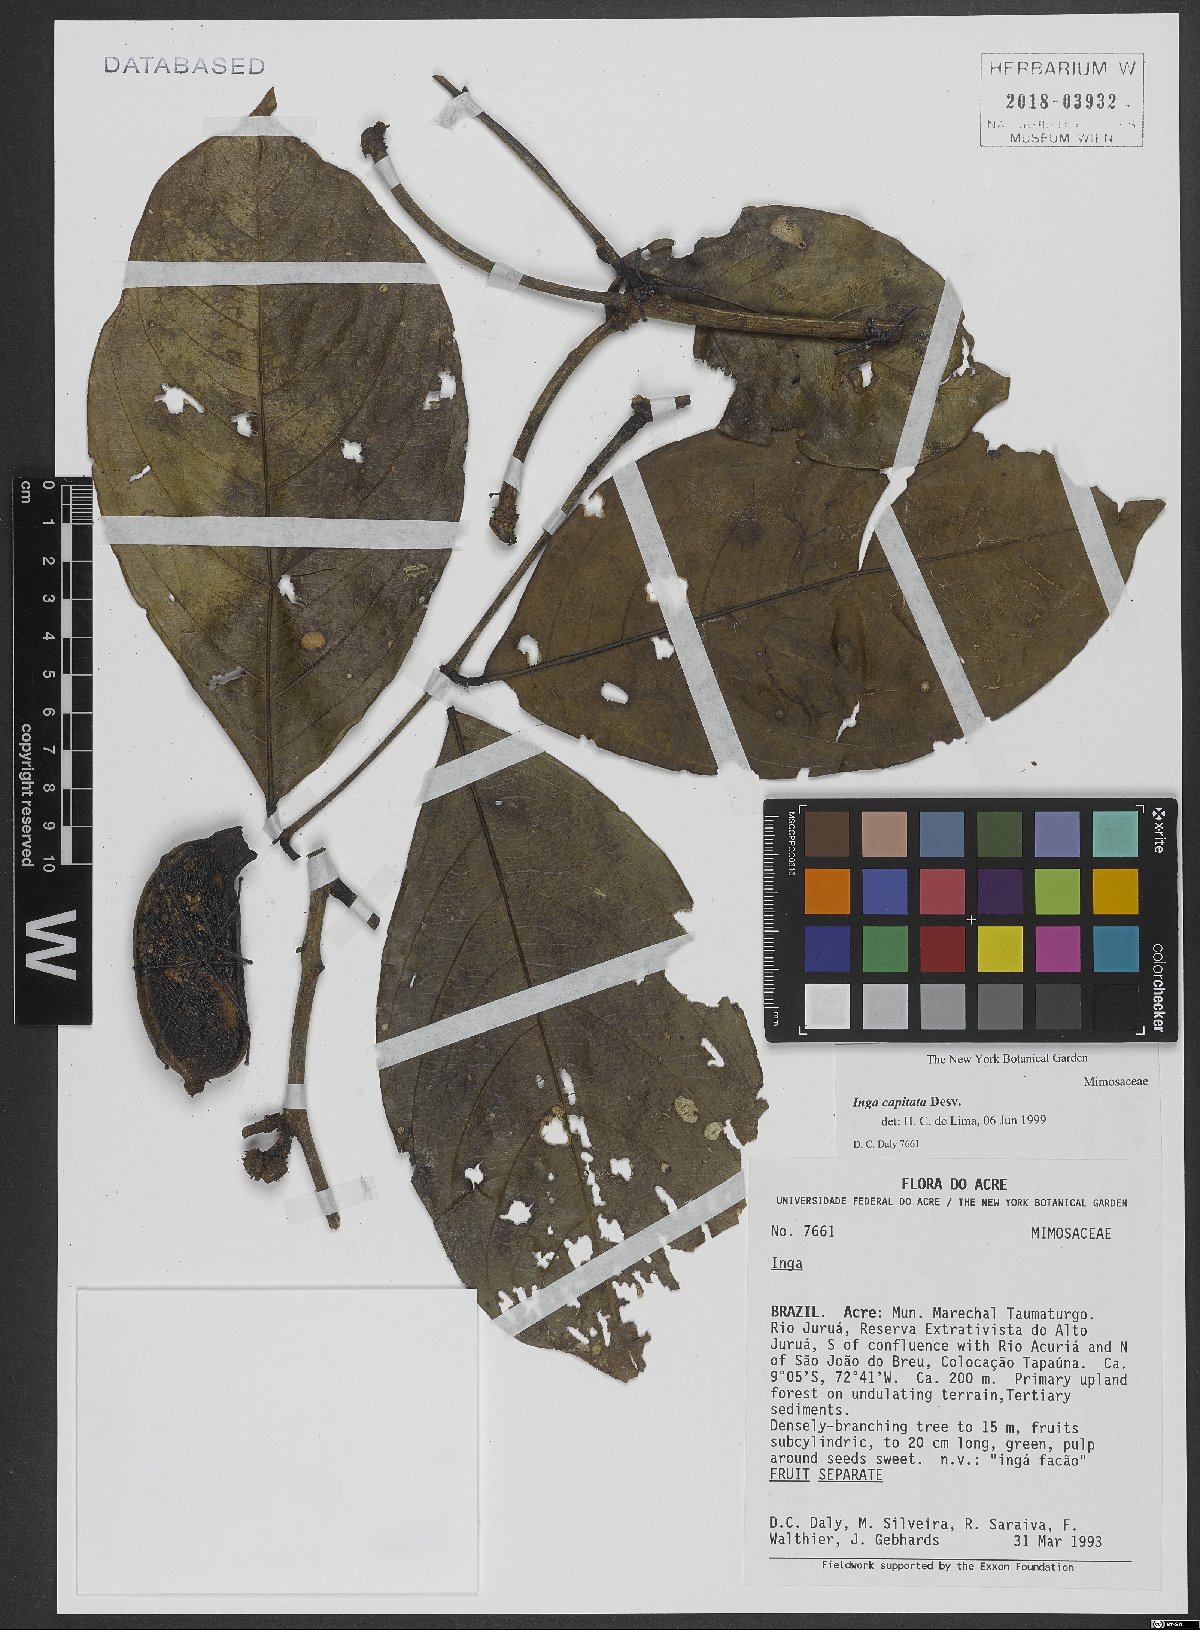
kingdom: Plantae
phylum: Tracheophyta
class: Magnoliopsida
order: Fabales
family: Fabaceae
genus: Inga
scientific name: Inga capitata
